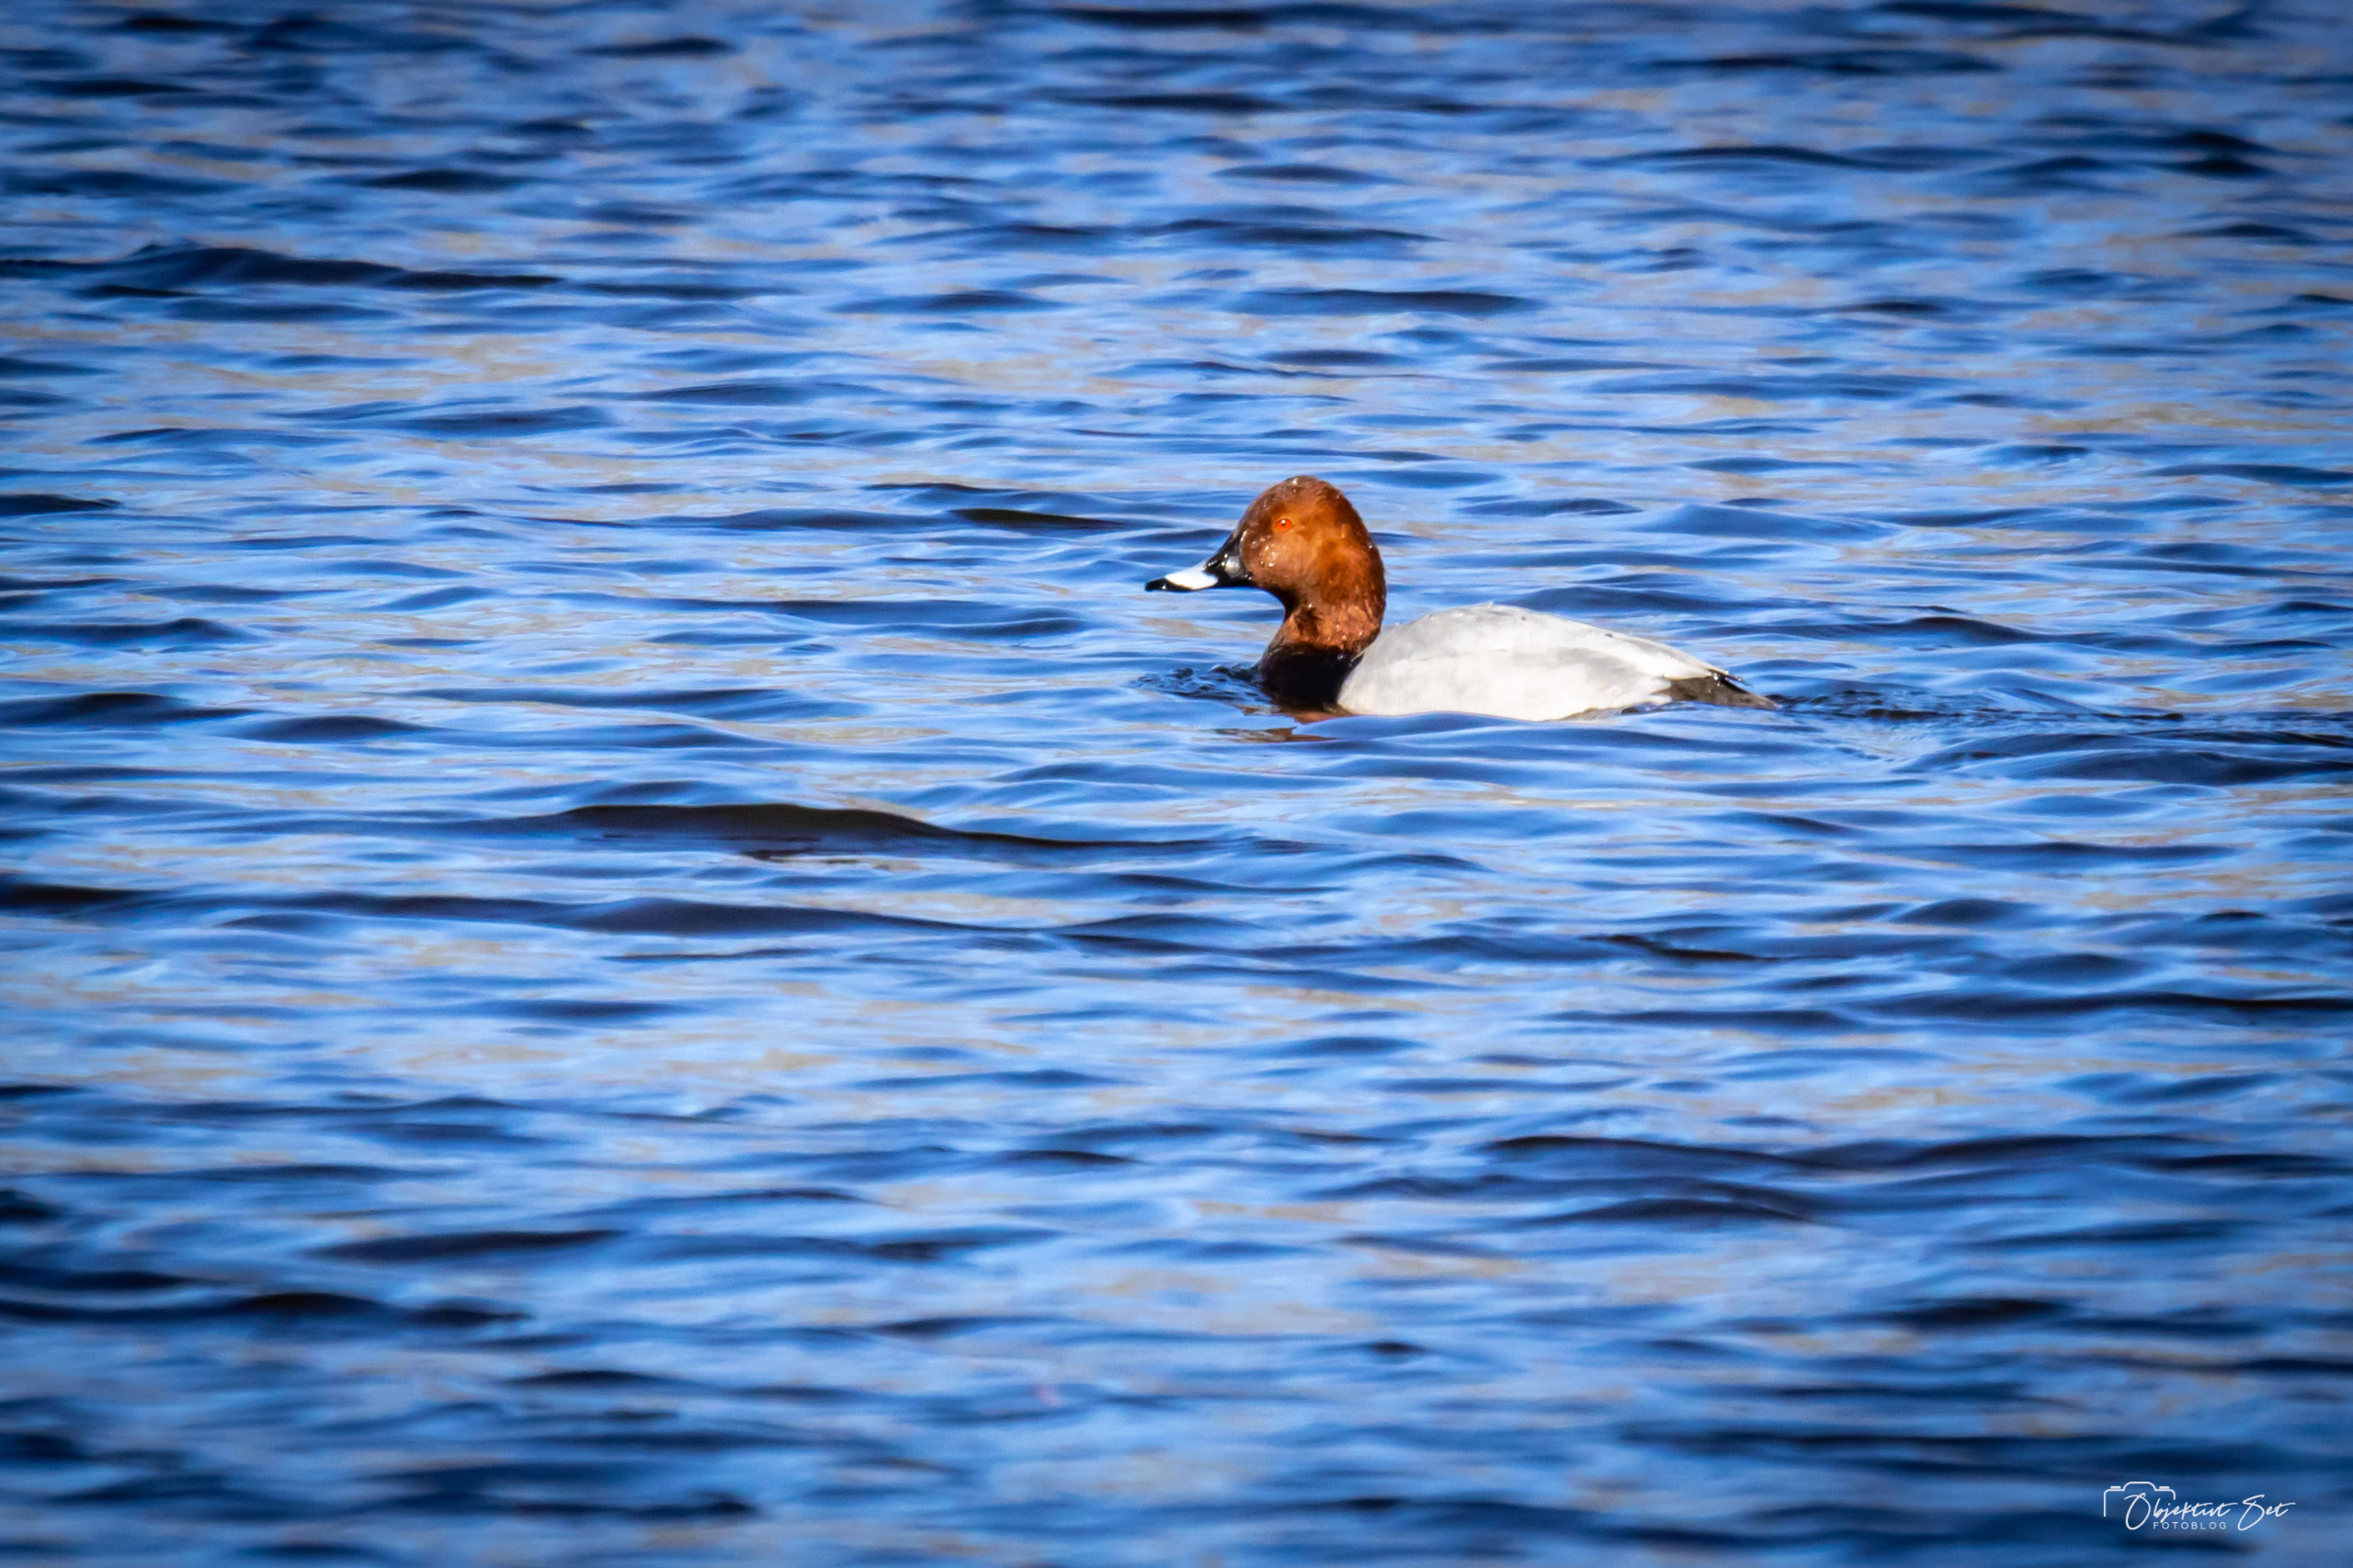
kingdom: Animalia
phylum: Chordata
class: Aves
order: Anseriformes
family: Anatidae
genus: Aythya
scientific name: Aythya ferina
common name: Taffeland
